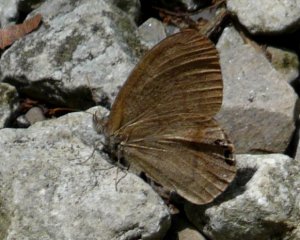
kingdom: Animalia
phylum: Arthropoda
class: Insecta
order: Lepidoptera
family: Nymphalidae
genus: Euptychia
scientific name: Euptychia cornelius
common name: Gemmed Satyr
